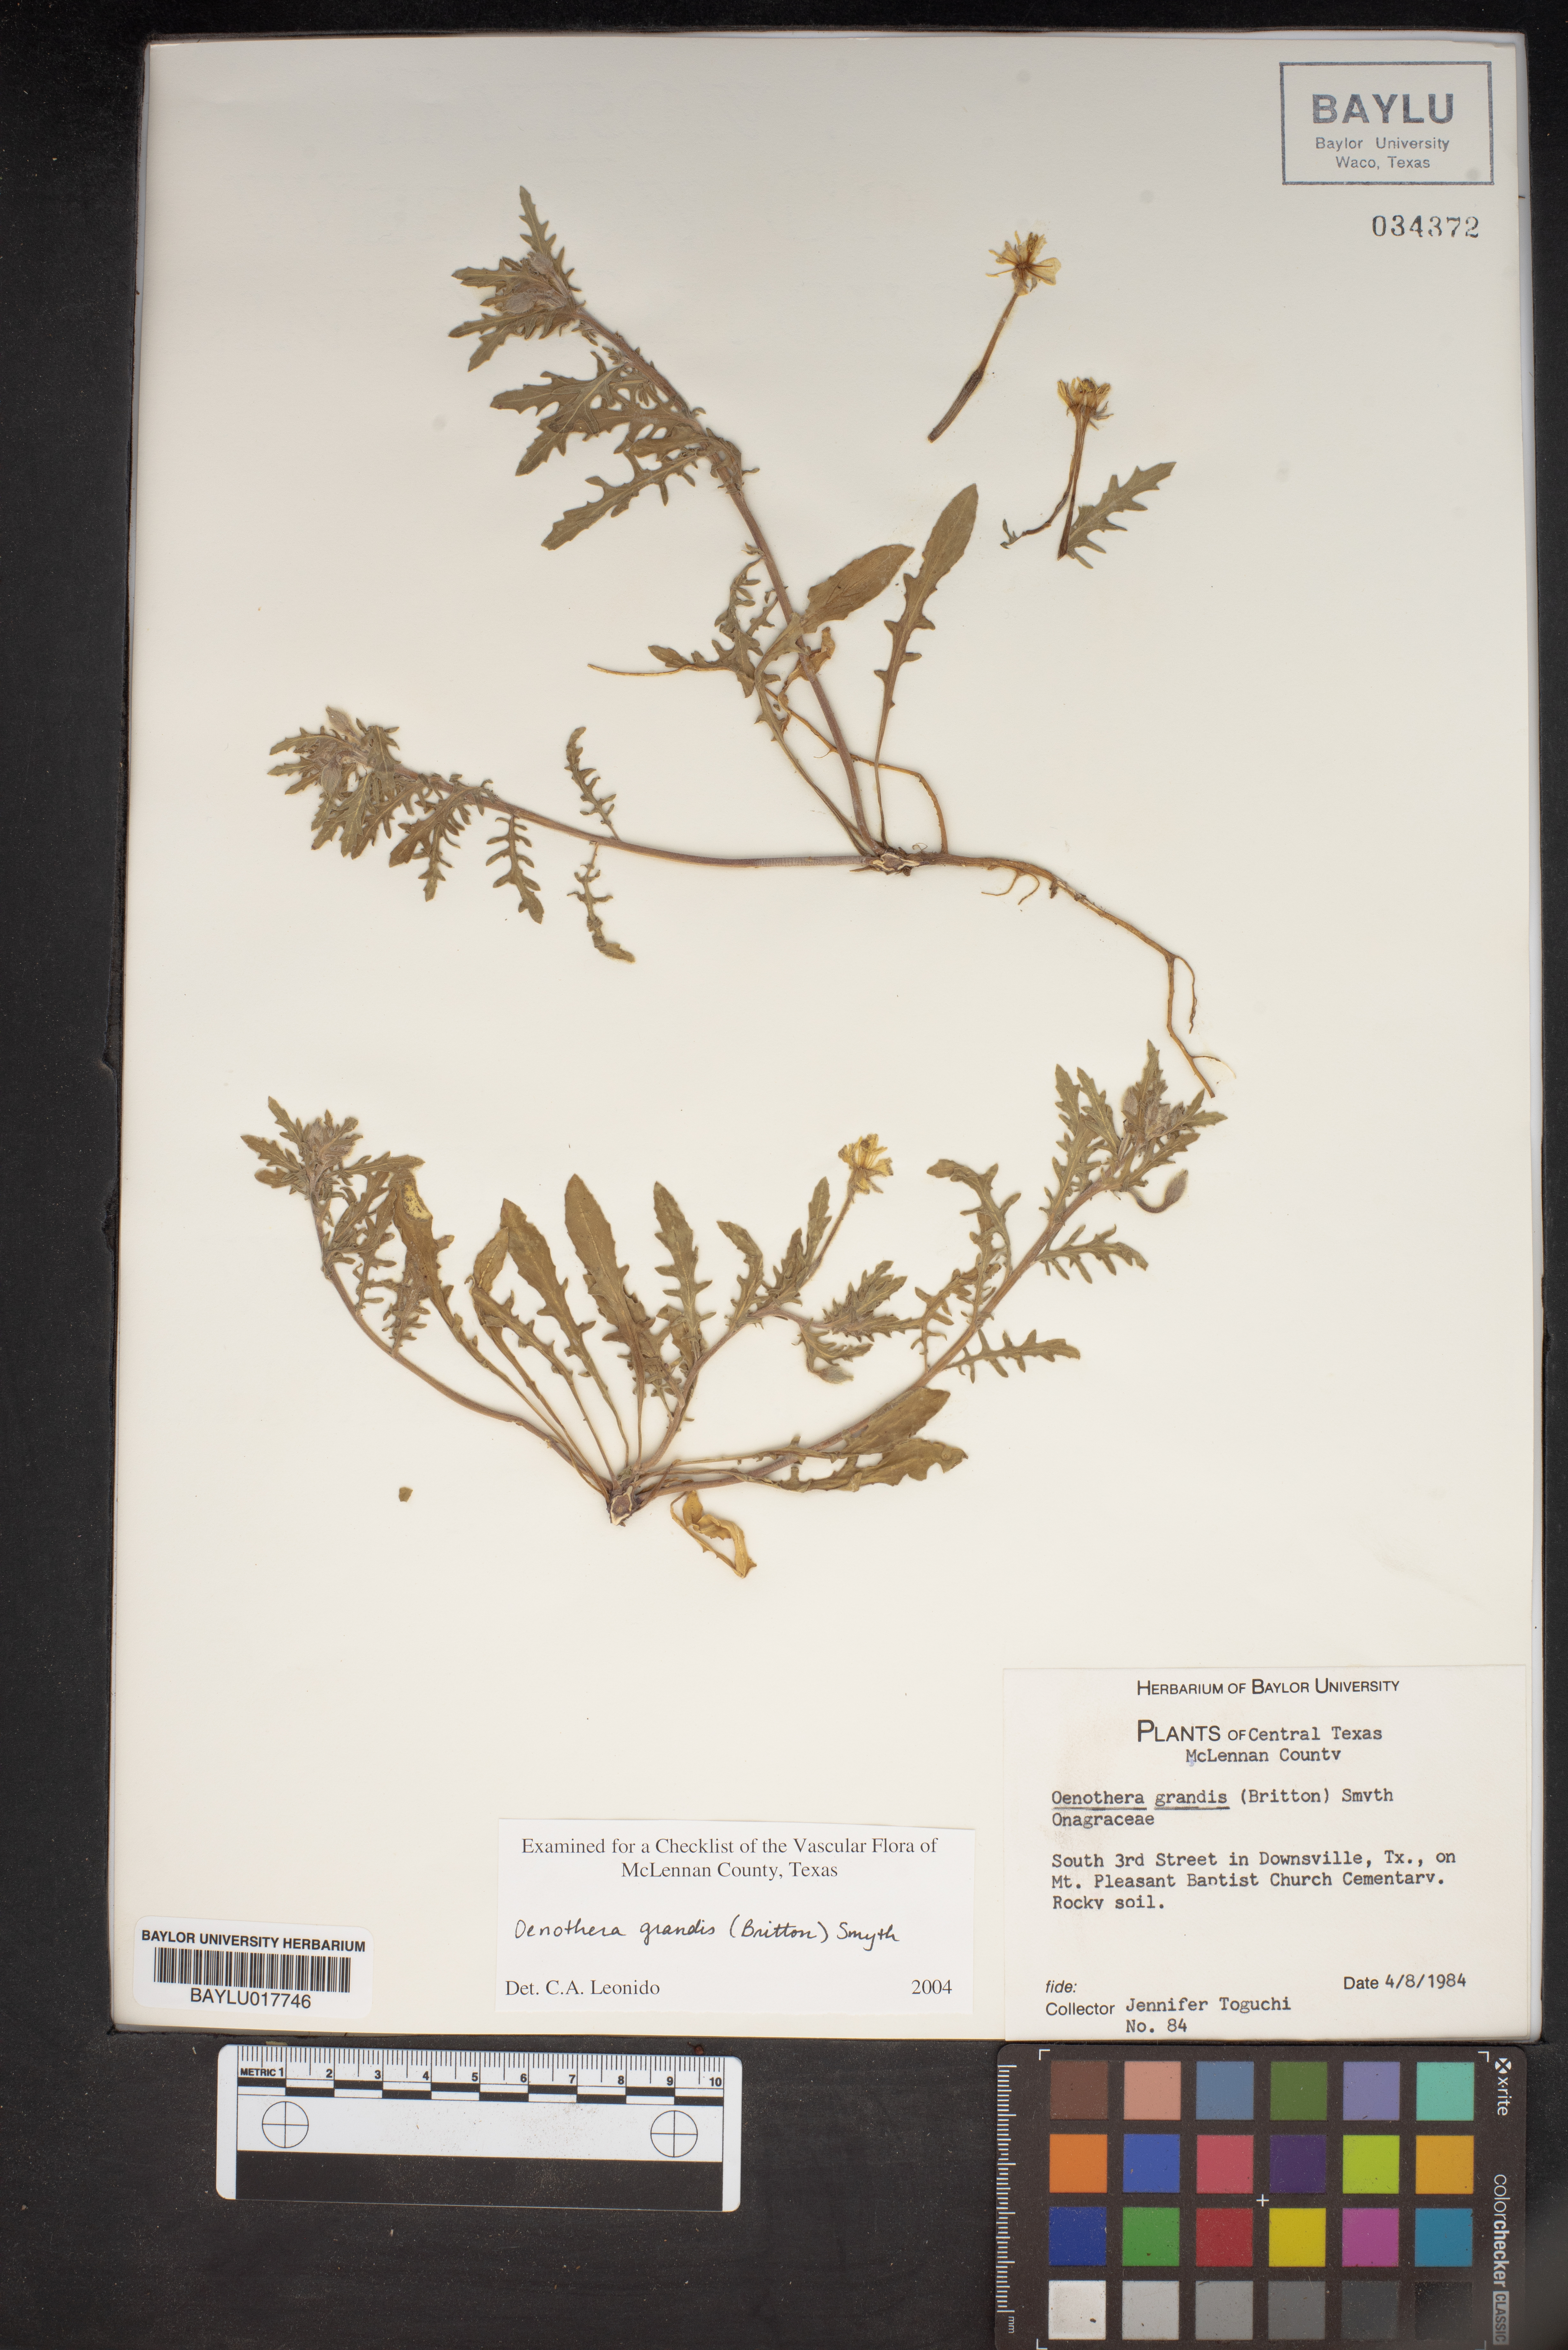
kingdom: Plantae
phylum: Tracheophyta
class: Magnoliopsida
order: Myrtales
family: Onagraceae
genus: Oenothera
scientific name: Oenothera grandis
